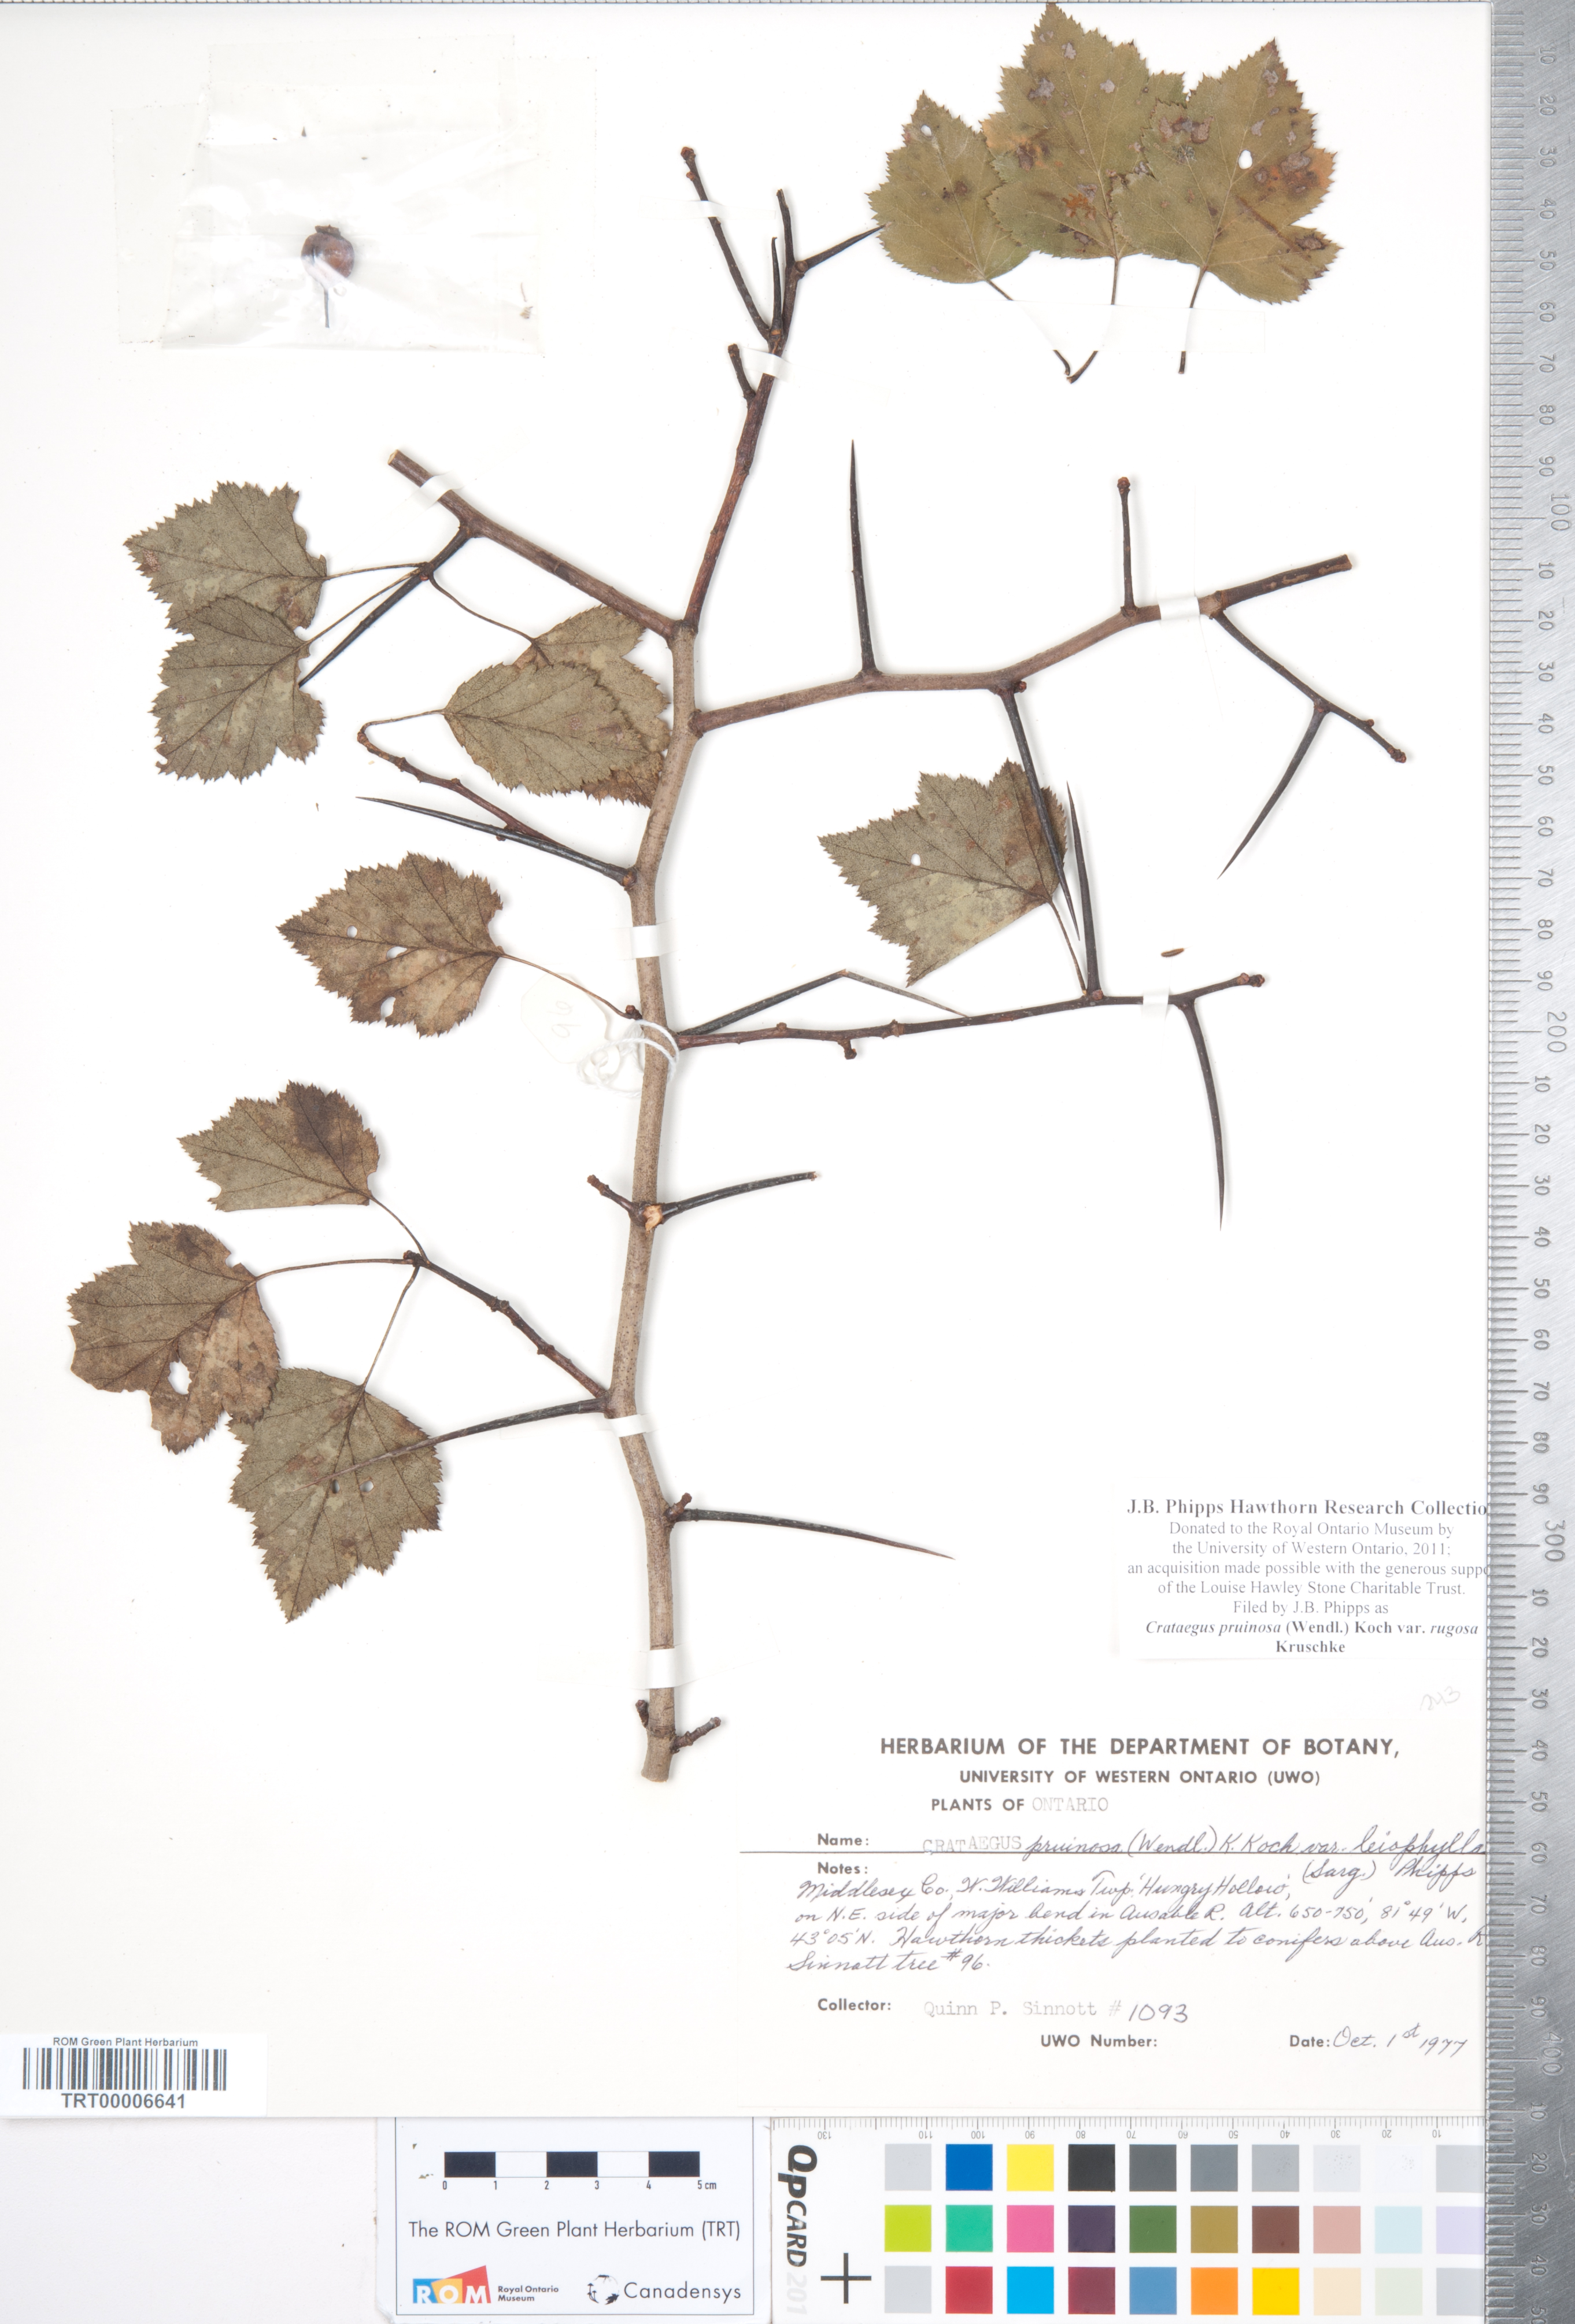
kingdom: Plantae
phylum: Tracheophyta
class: Magnoliopsida
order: Rosales
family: Rosaceae
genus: Crataegus
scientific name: Crataegus pruinosa
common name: Waxy-fruit hawthorn
